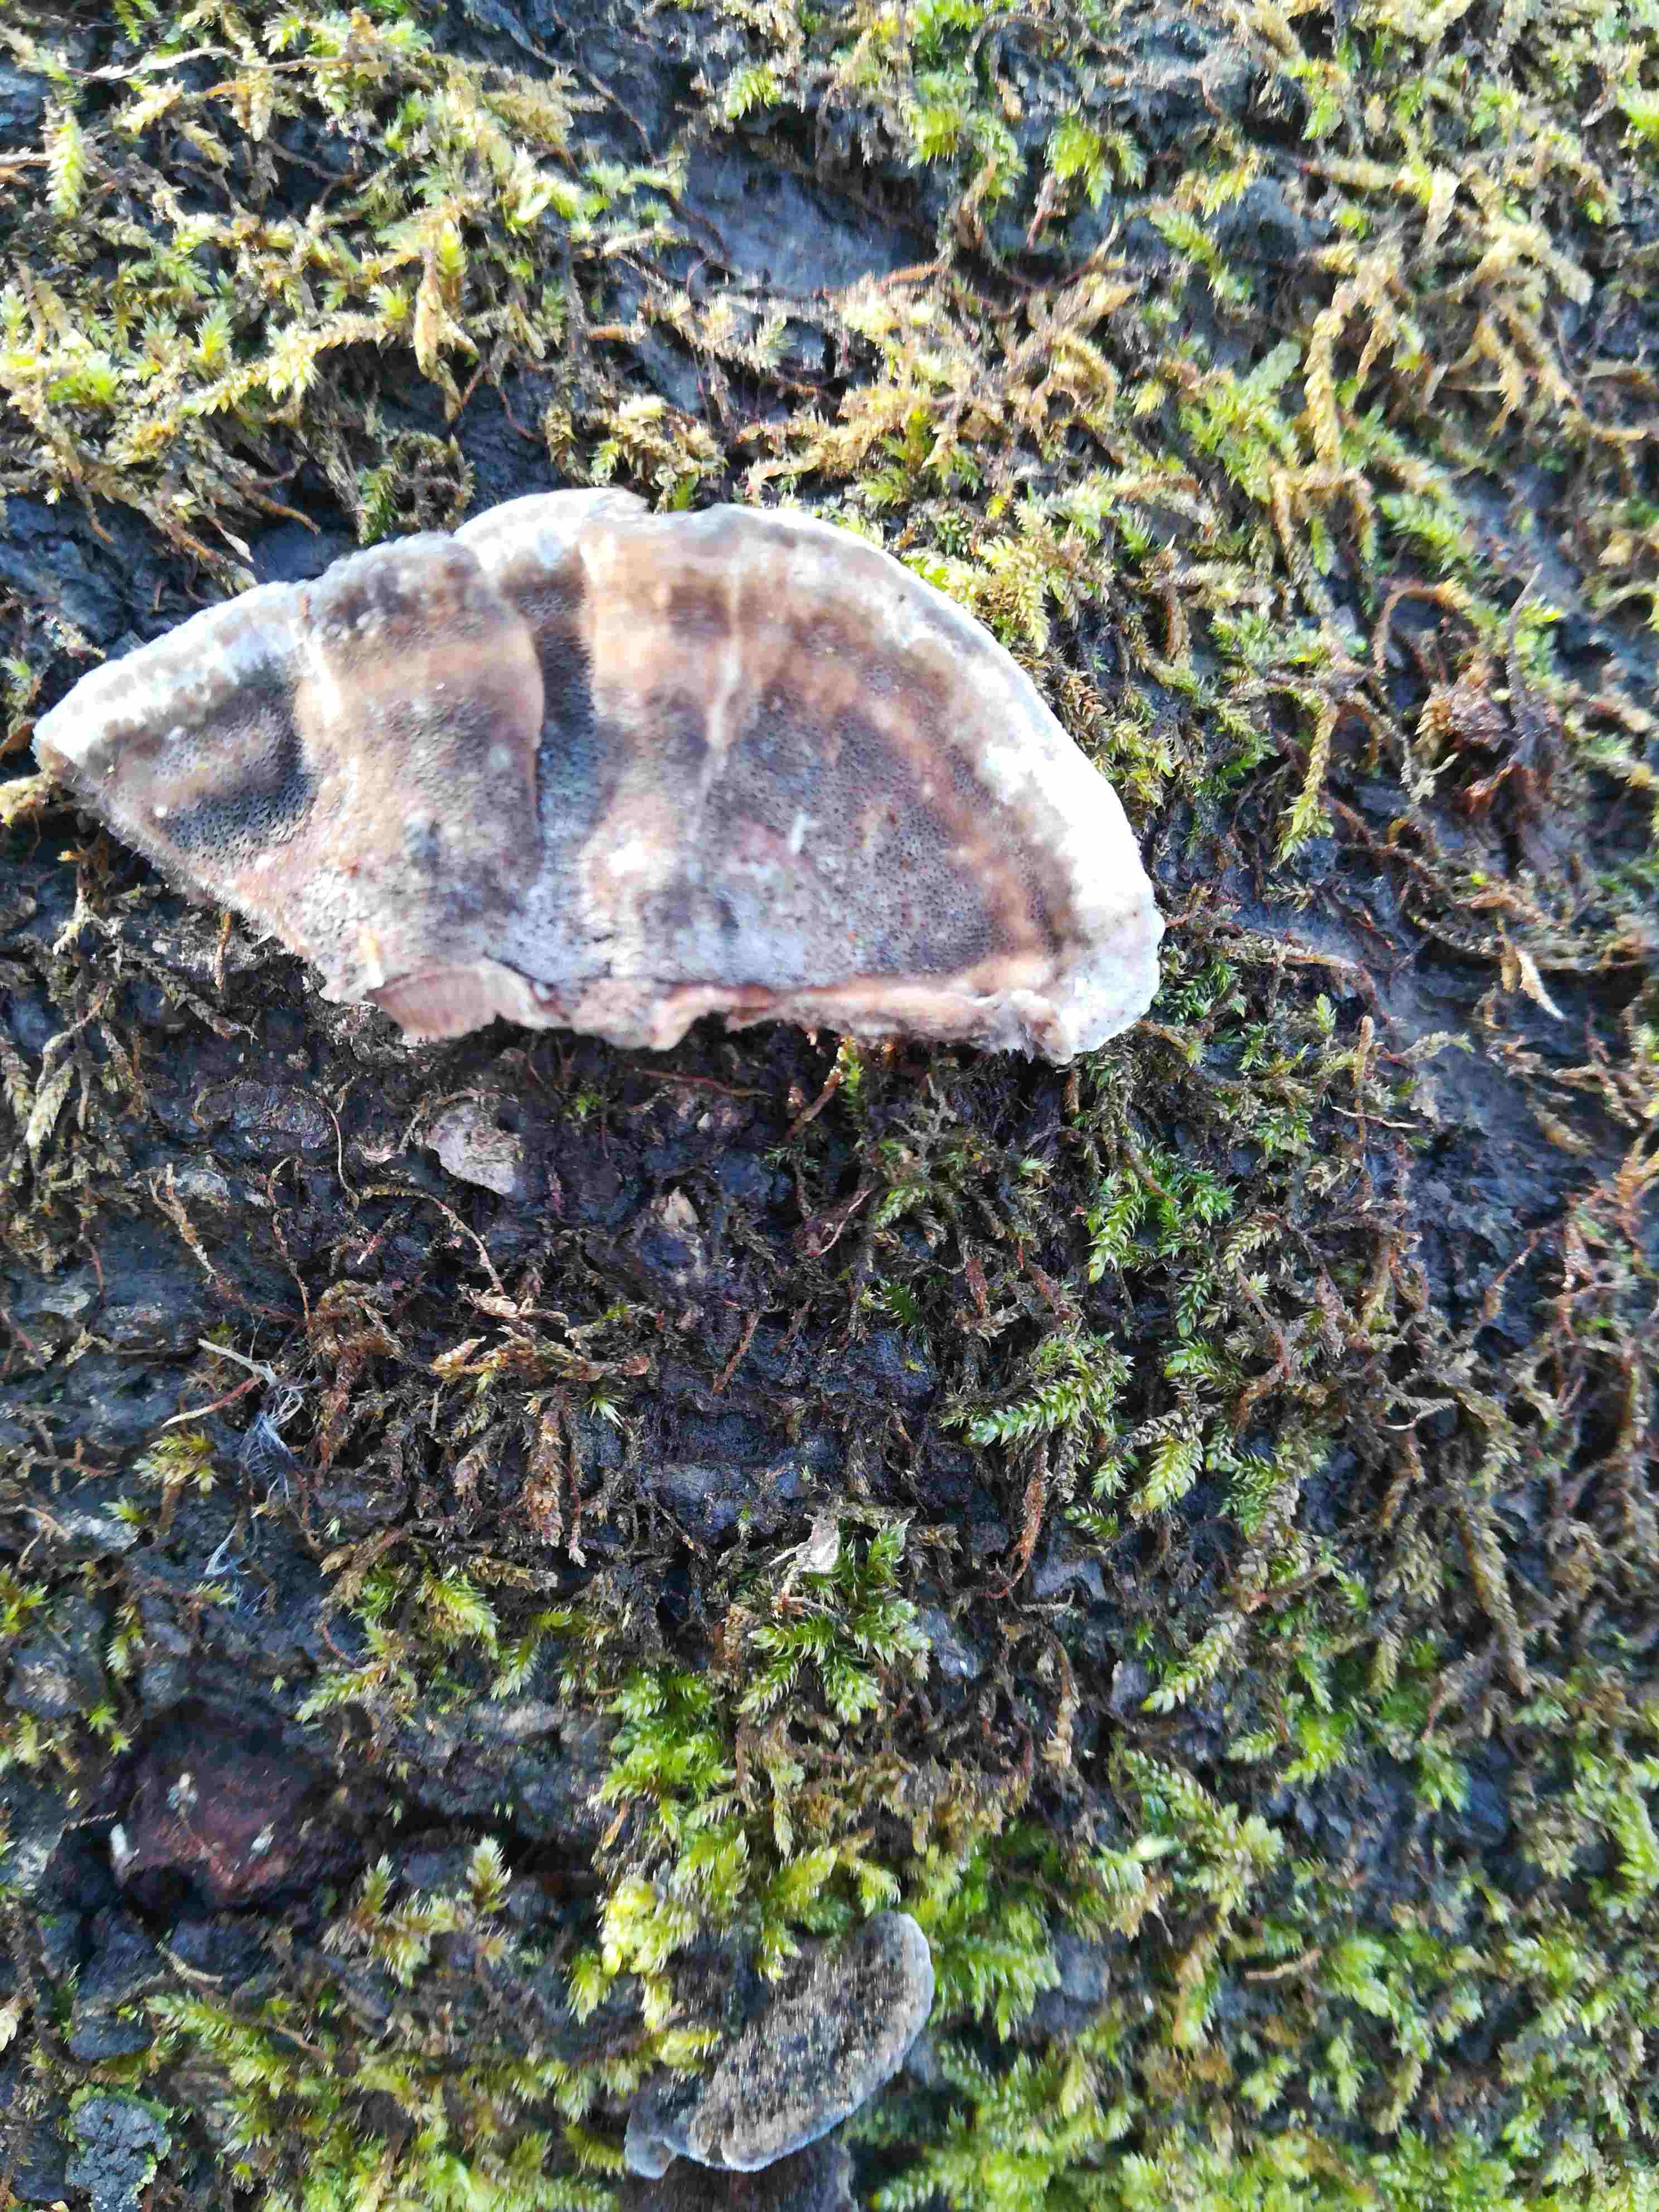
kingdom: Fungi
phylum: Basidiomycota
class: Agaricomycetes
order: Polyporales
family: Phanerochaetaceae
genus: Bjerkandera
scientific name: Bjerkandera adusta
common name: sveden sodporesvamp
